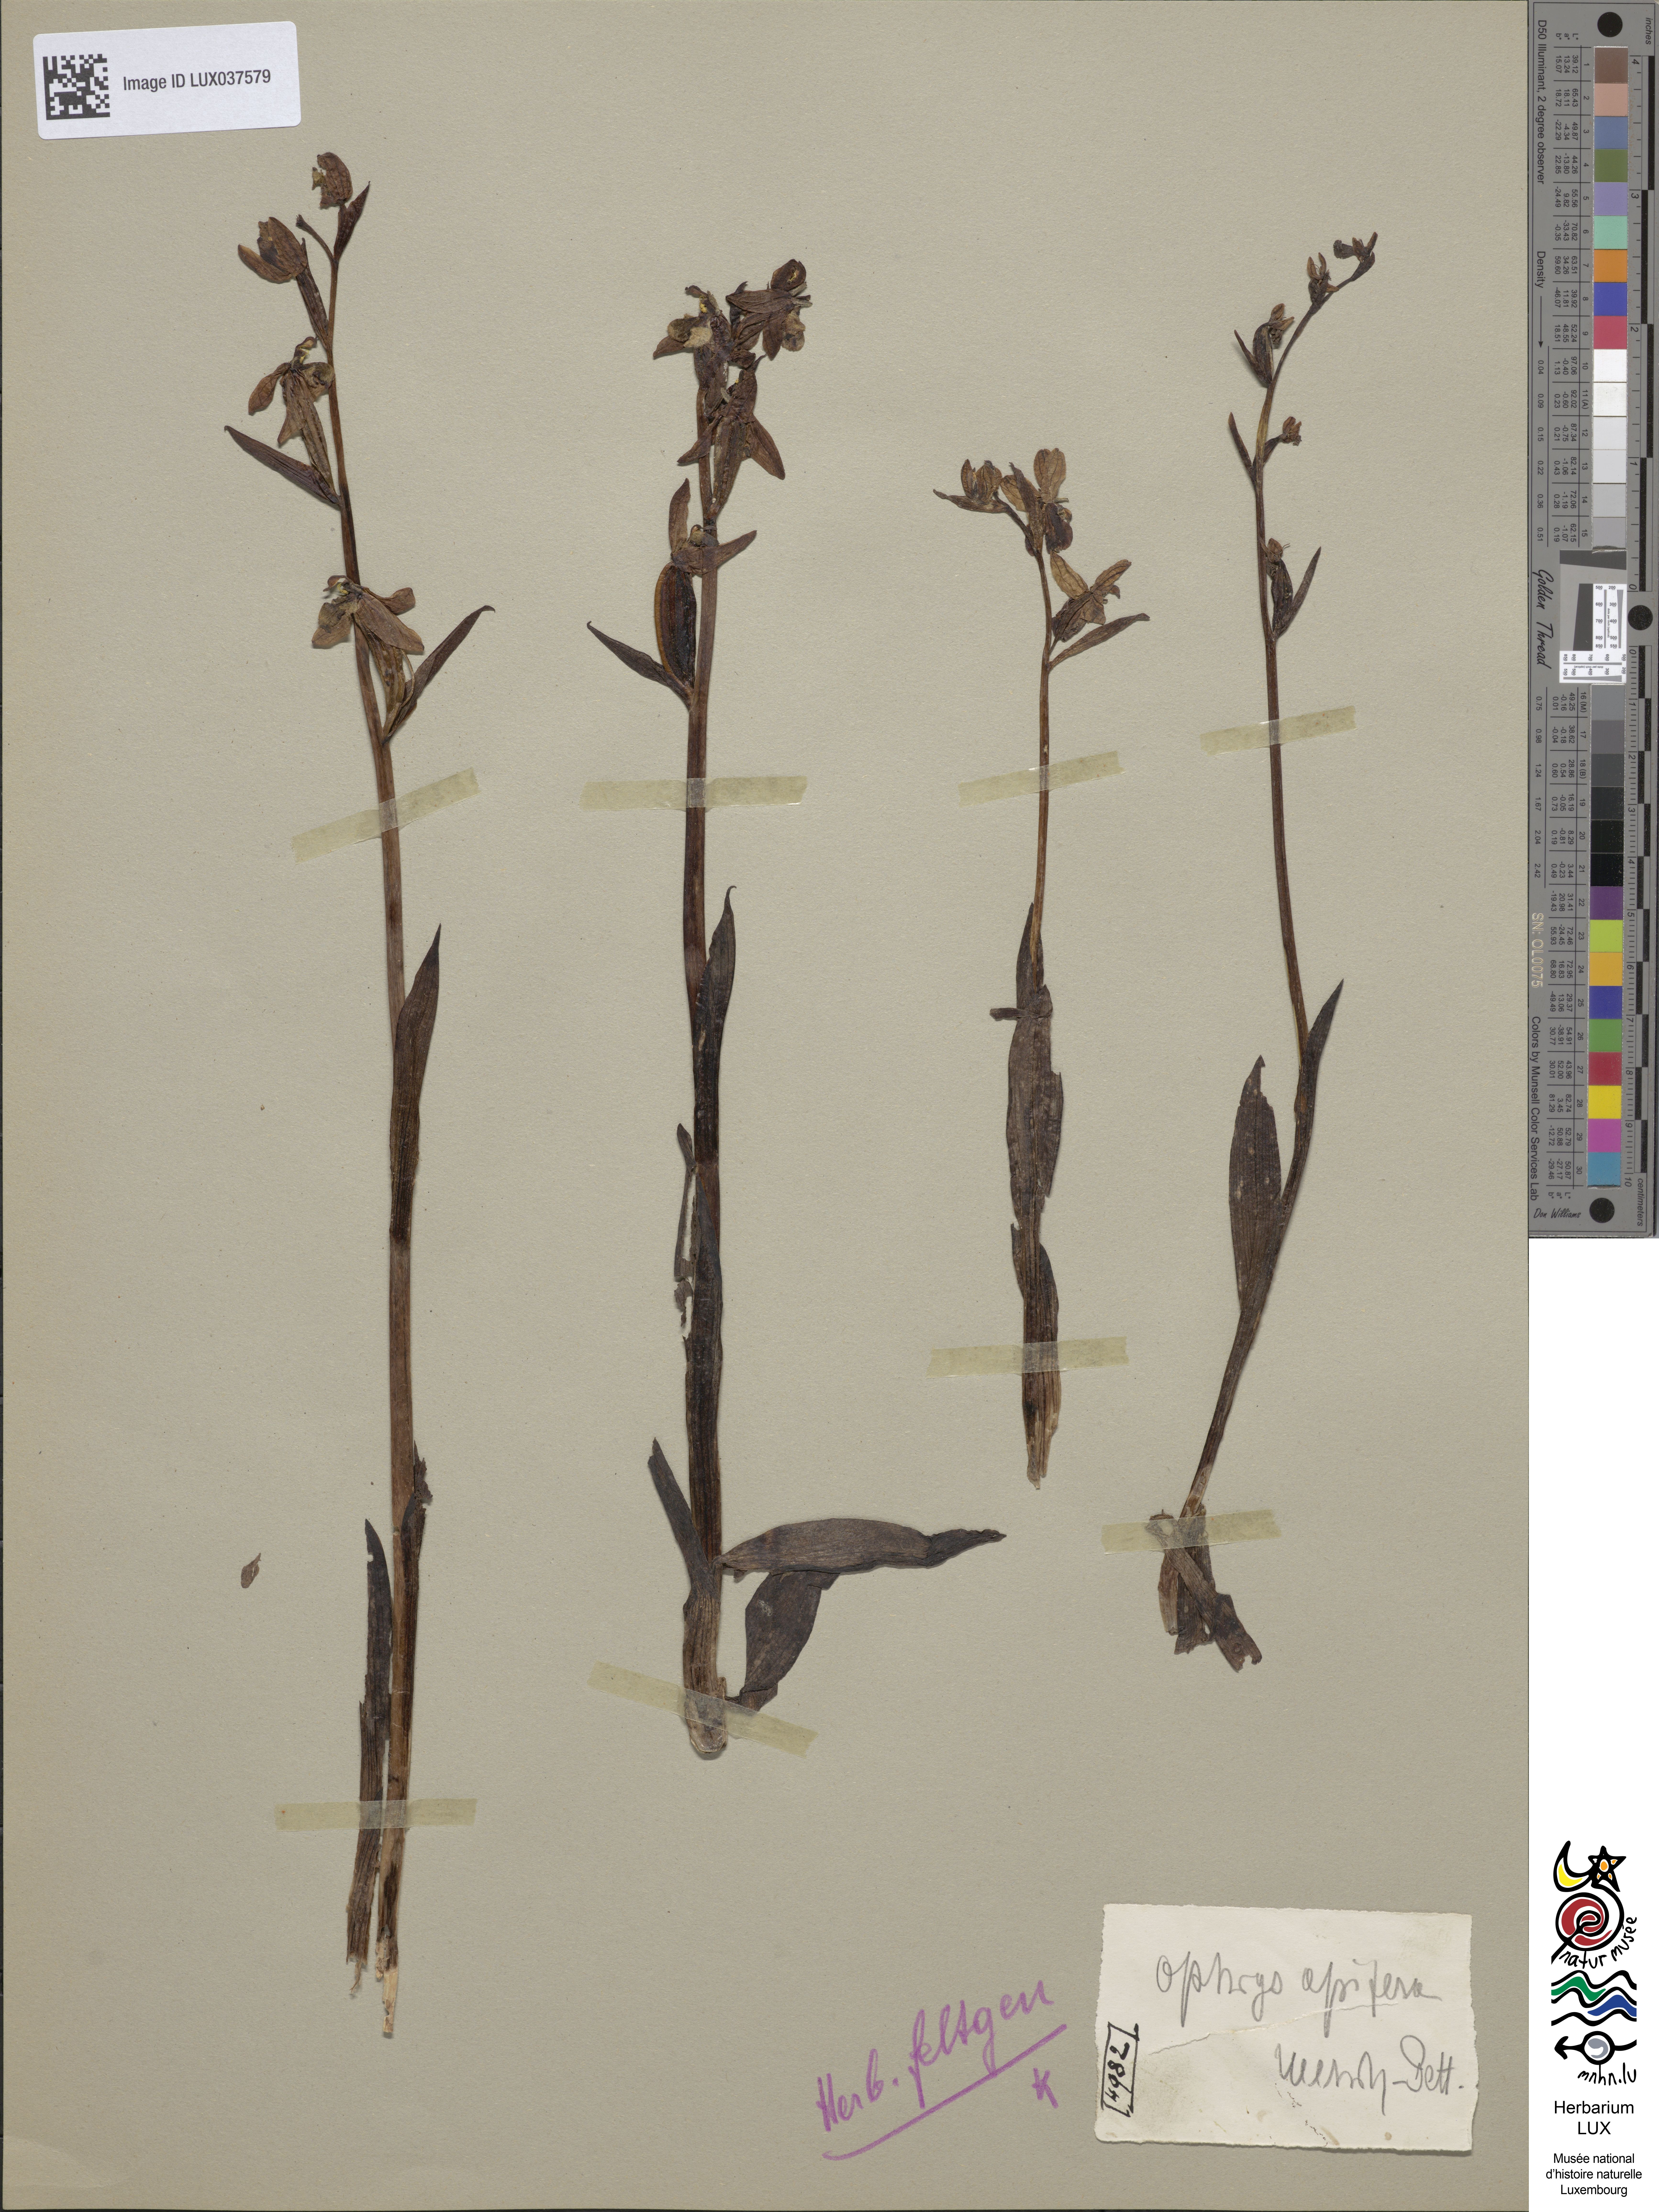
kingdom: Plantae
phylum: Tracheophyta
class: Liliopsida
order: Asparagales
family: Orchidaceae
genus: Ophrys
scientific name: Ophrys apifera
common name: Bee orchid
